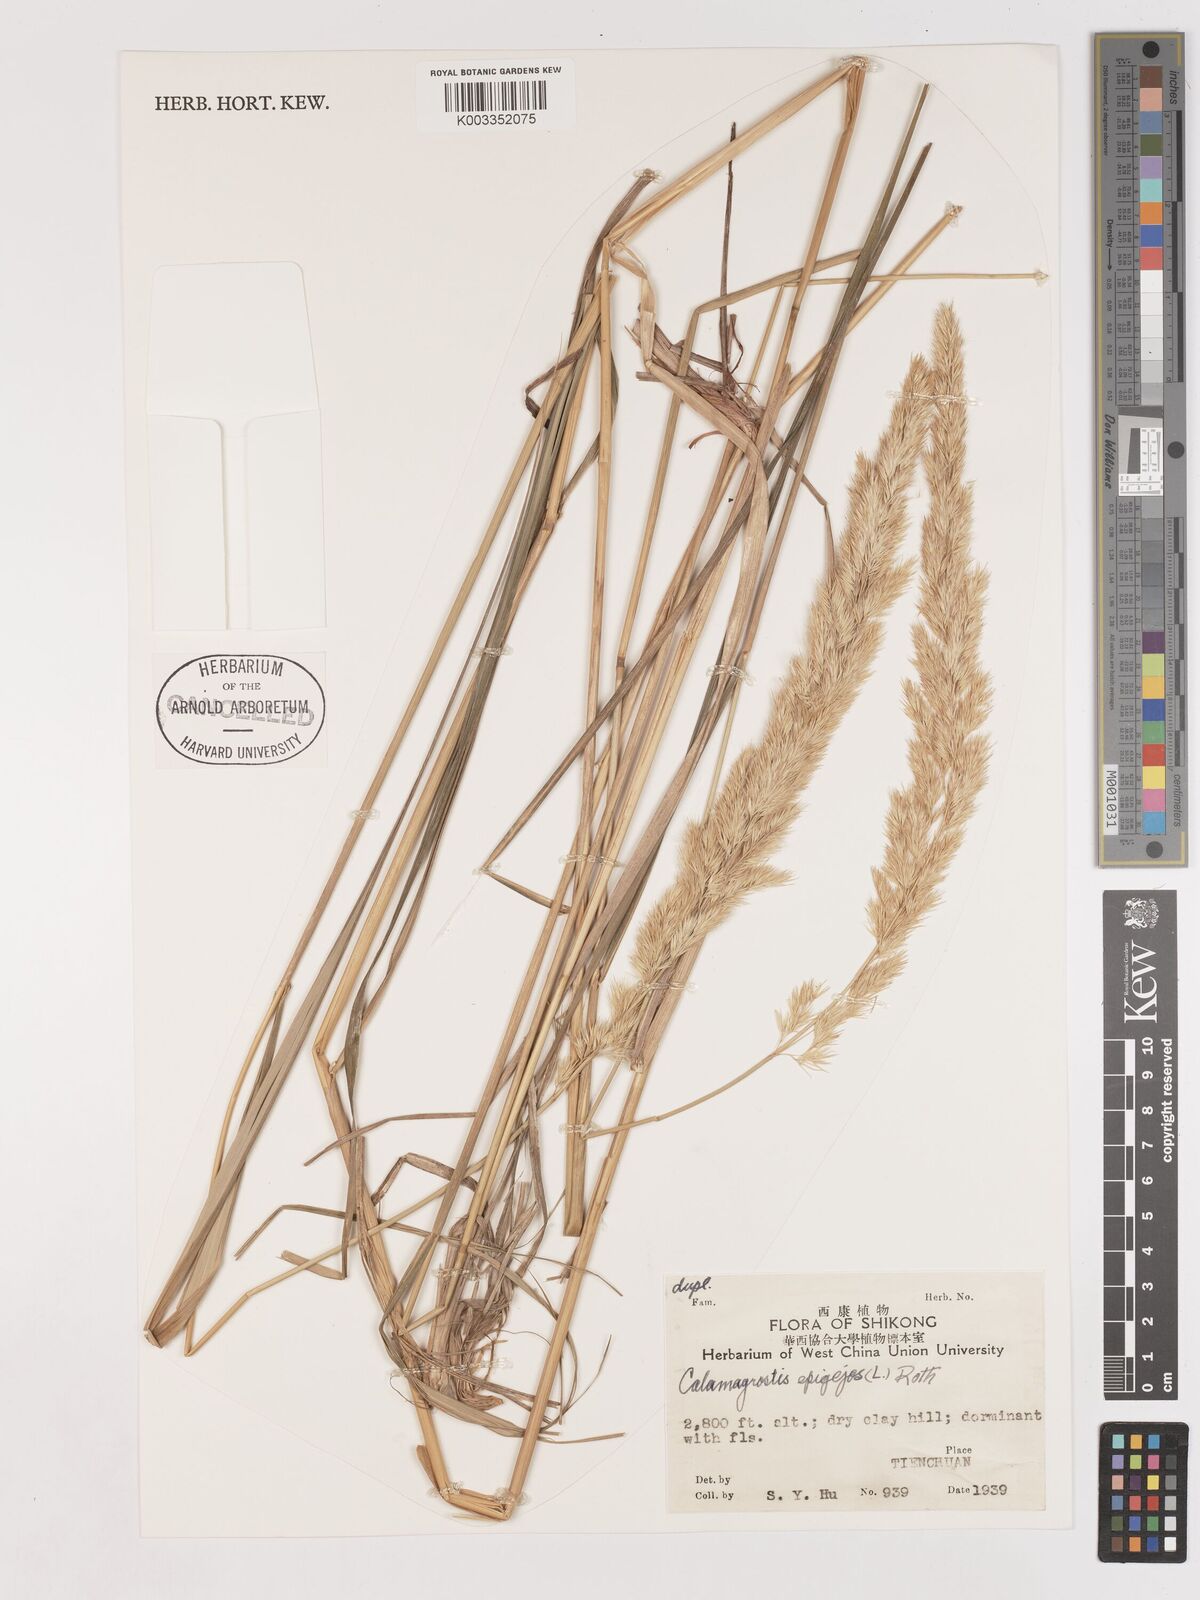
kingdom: Plantae
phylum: Tracheophyta
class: Liliopsida
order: Poales
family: Poaceae
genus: Calamagrostis
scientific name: Calamagrostis epigejos
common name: Wood small-reed
